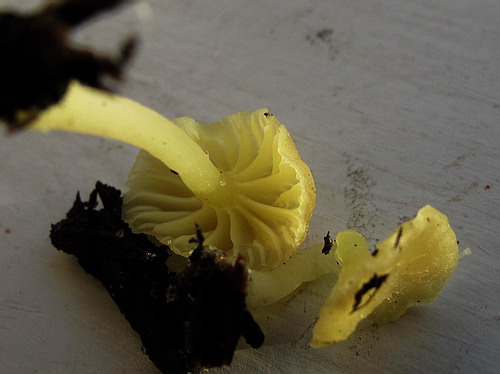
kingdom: Fungi
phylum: Basidiomycota
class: Agaricomycetes
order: Agaricales
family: Hygrophoraceae
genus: Chrysomphalina
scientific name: Chrysomphalina grossula
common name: stød-gyldenblad
